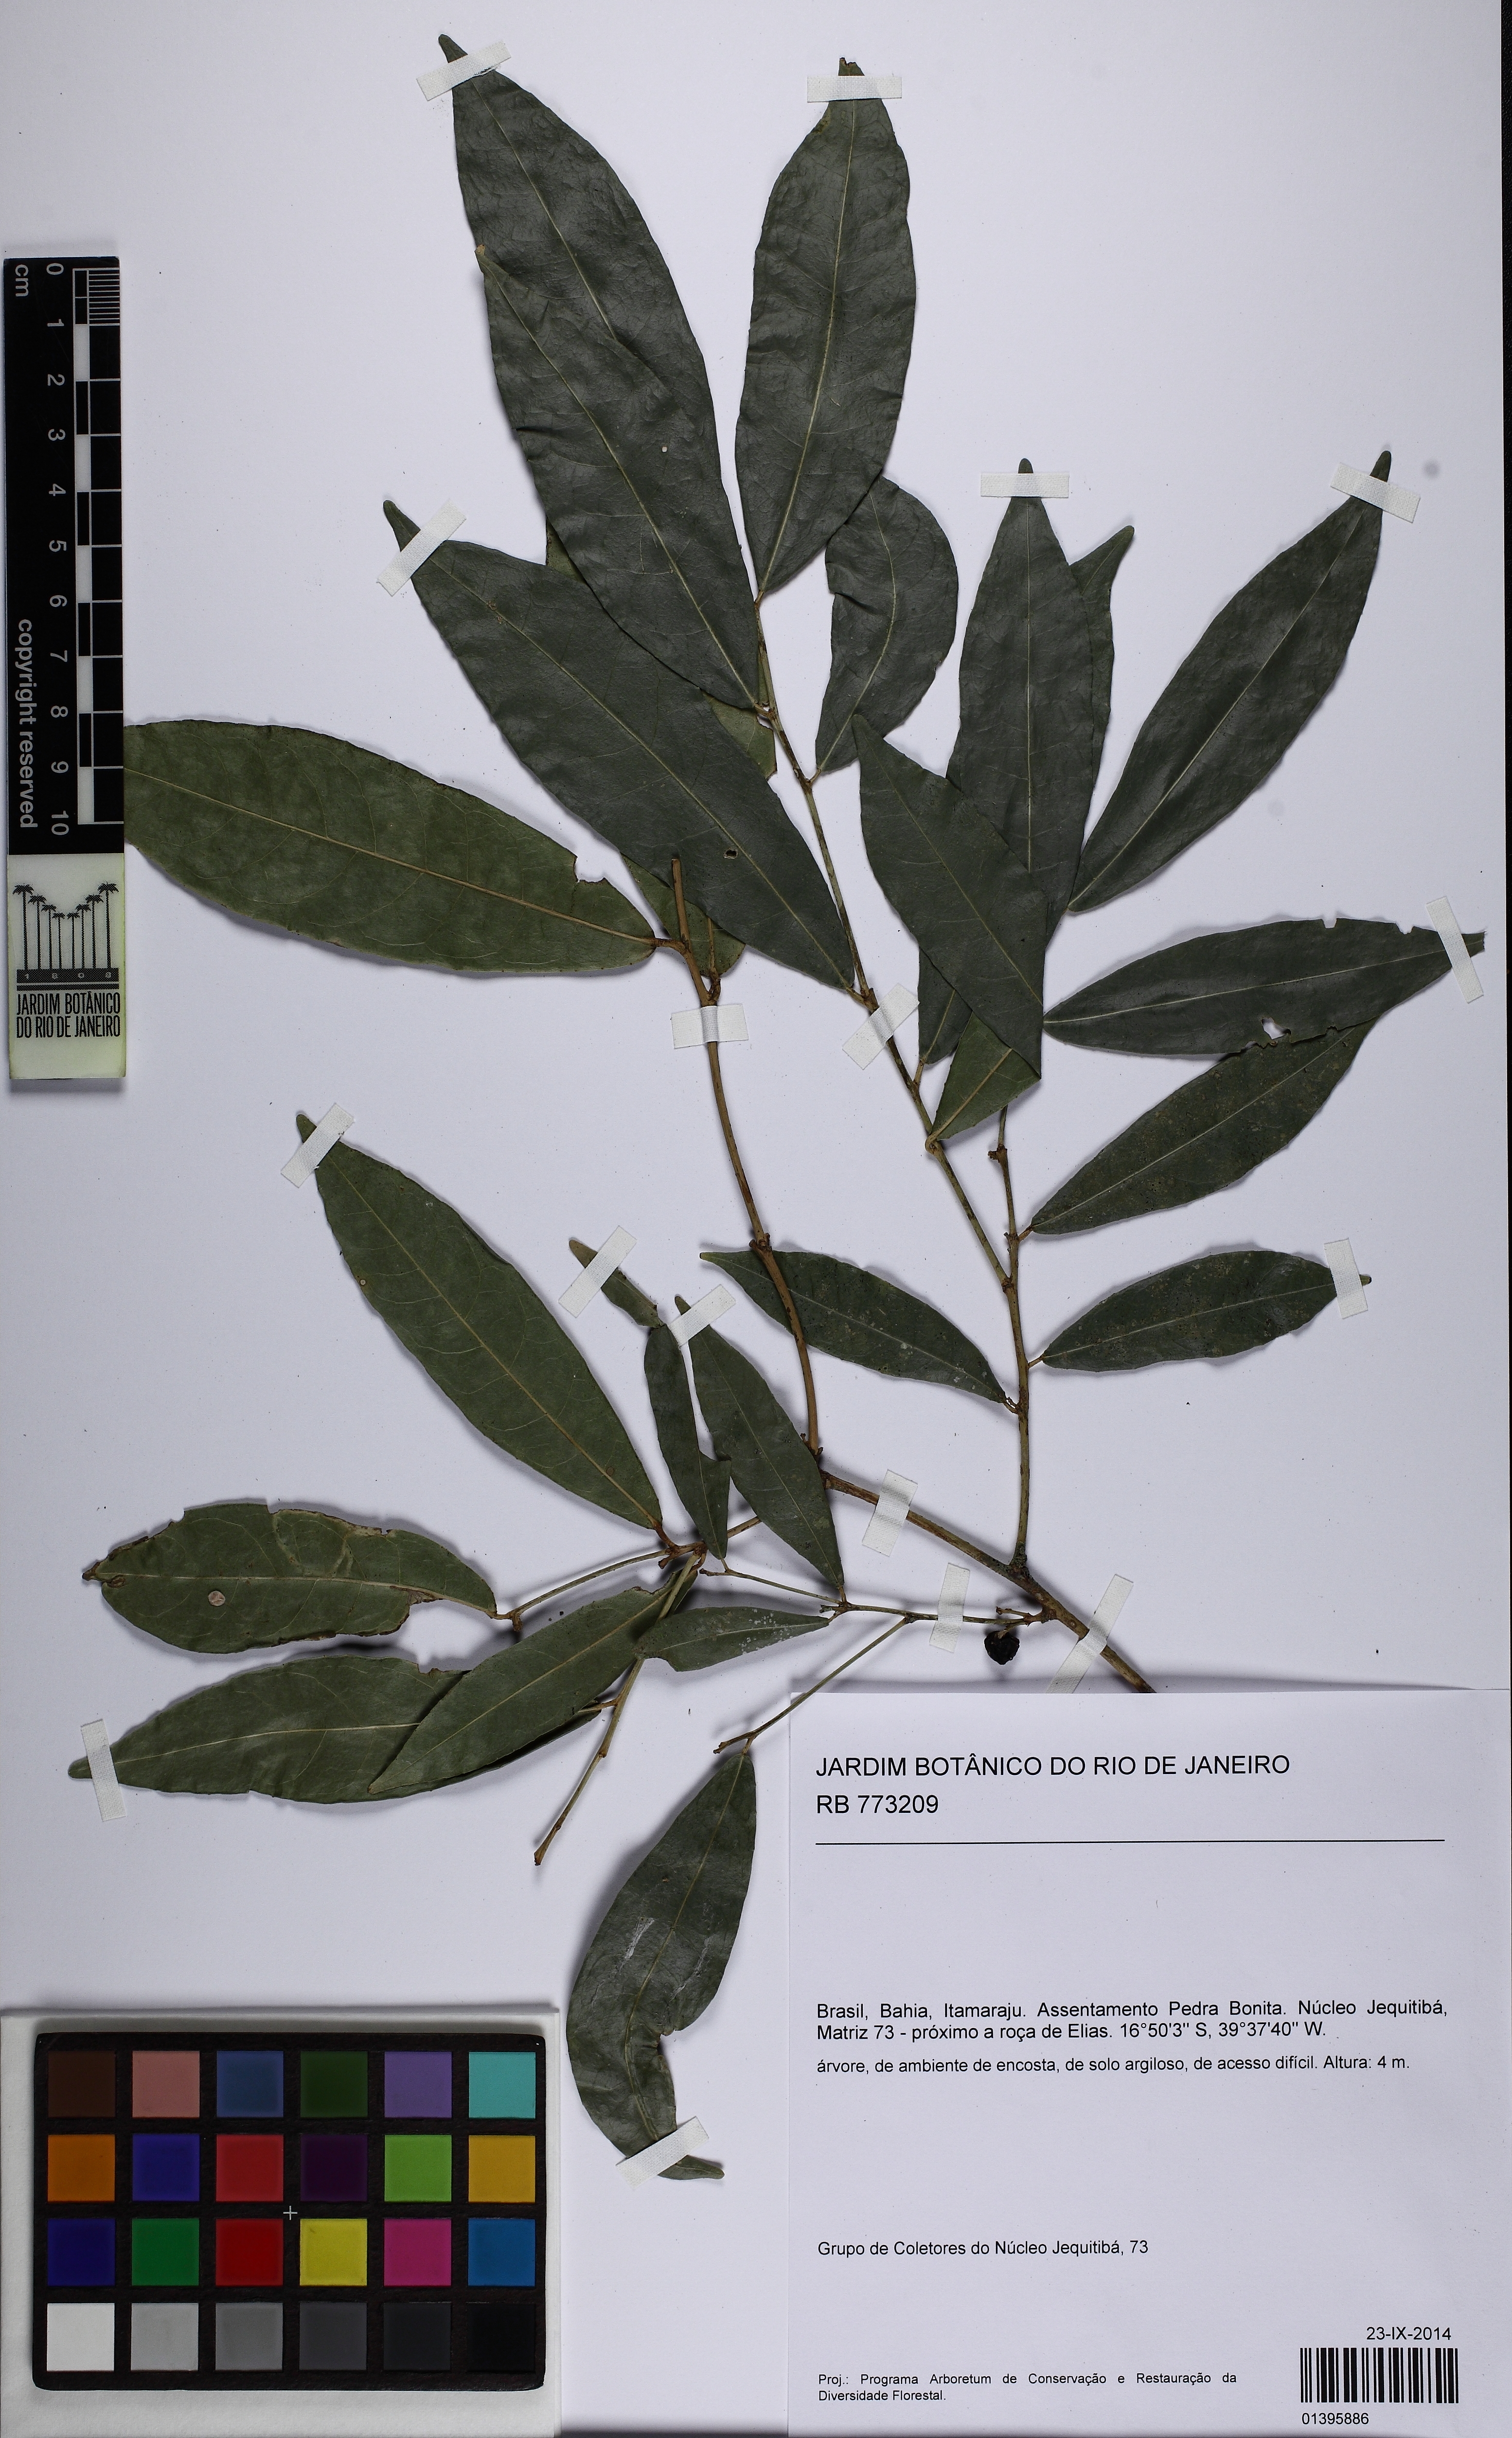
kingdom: Plantae
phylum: Tracheophyta
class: Magnoliopsida
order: Malpighiales
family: Euphorbiaceae
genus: Gymnanthes
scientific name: Gymnanthes glabrata
